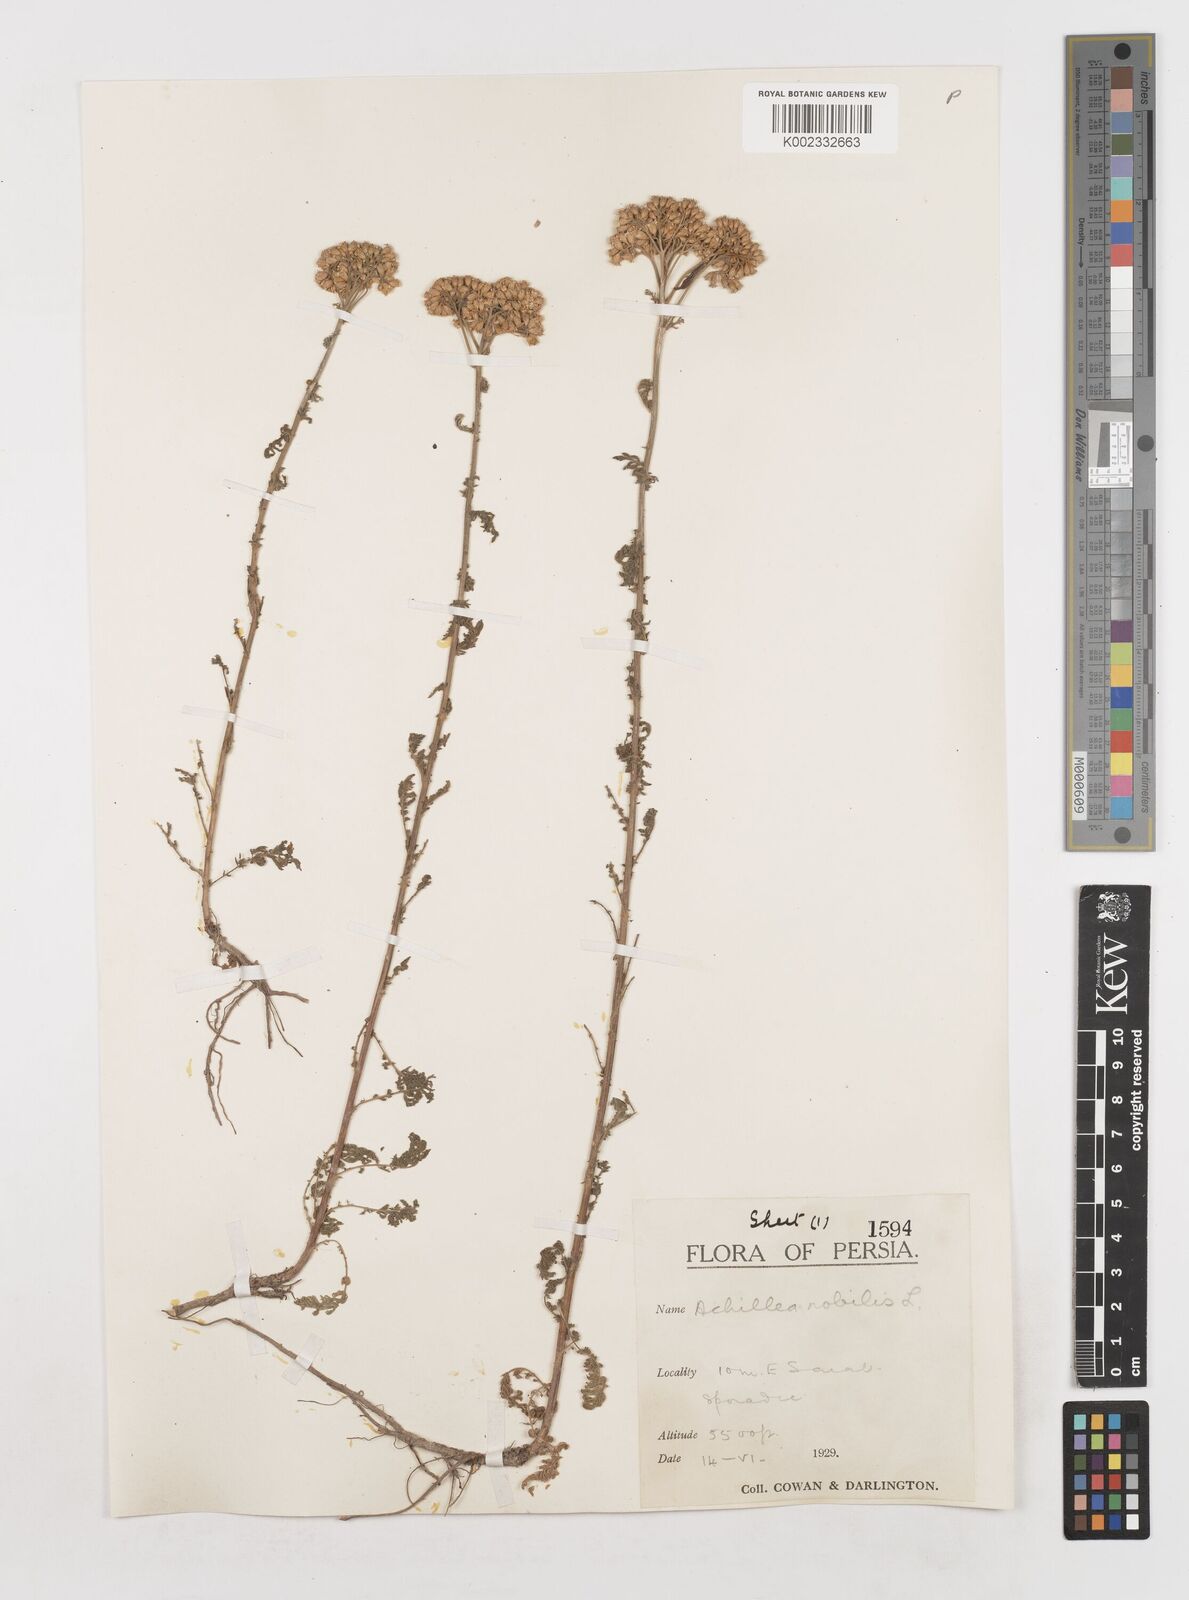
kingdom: Plantae
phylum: Tracheophyta
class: Magnoliopsida
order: Asterales
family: Asteraceae
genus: Achillea
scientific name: Achillea nobilis
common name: Noble yarrow
